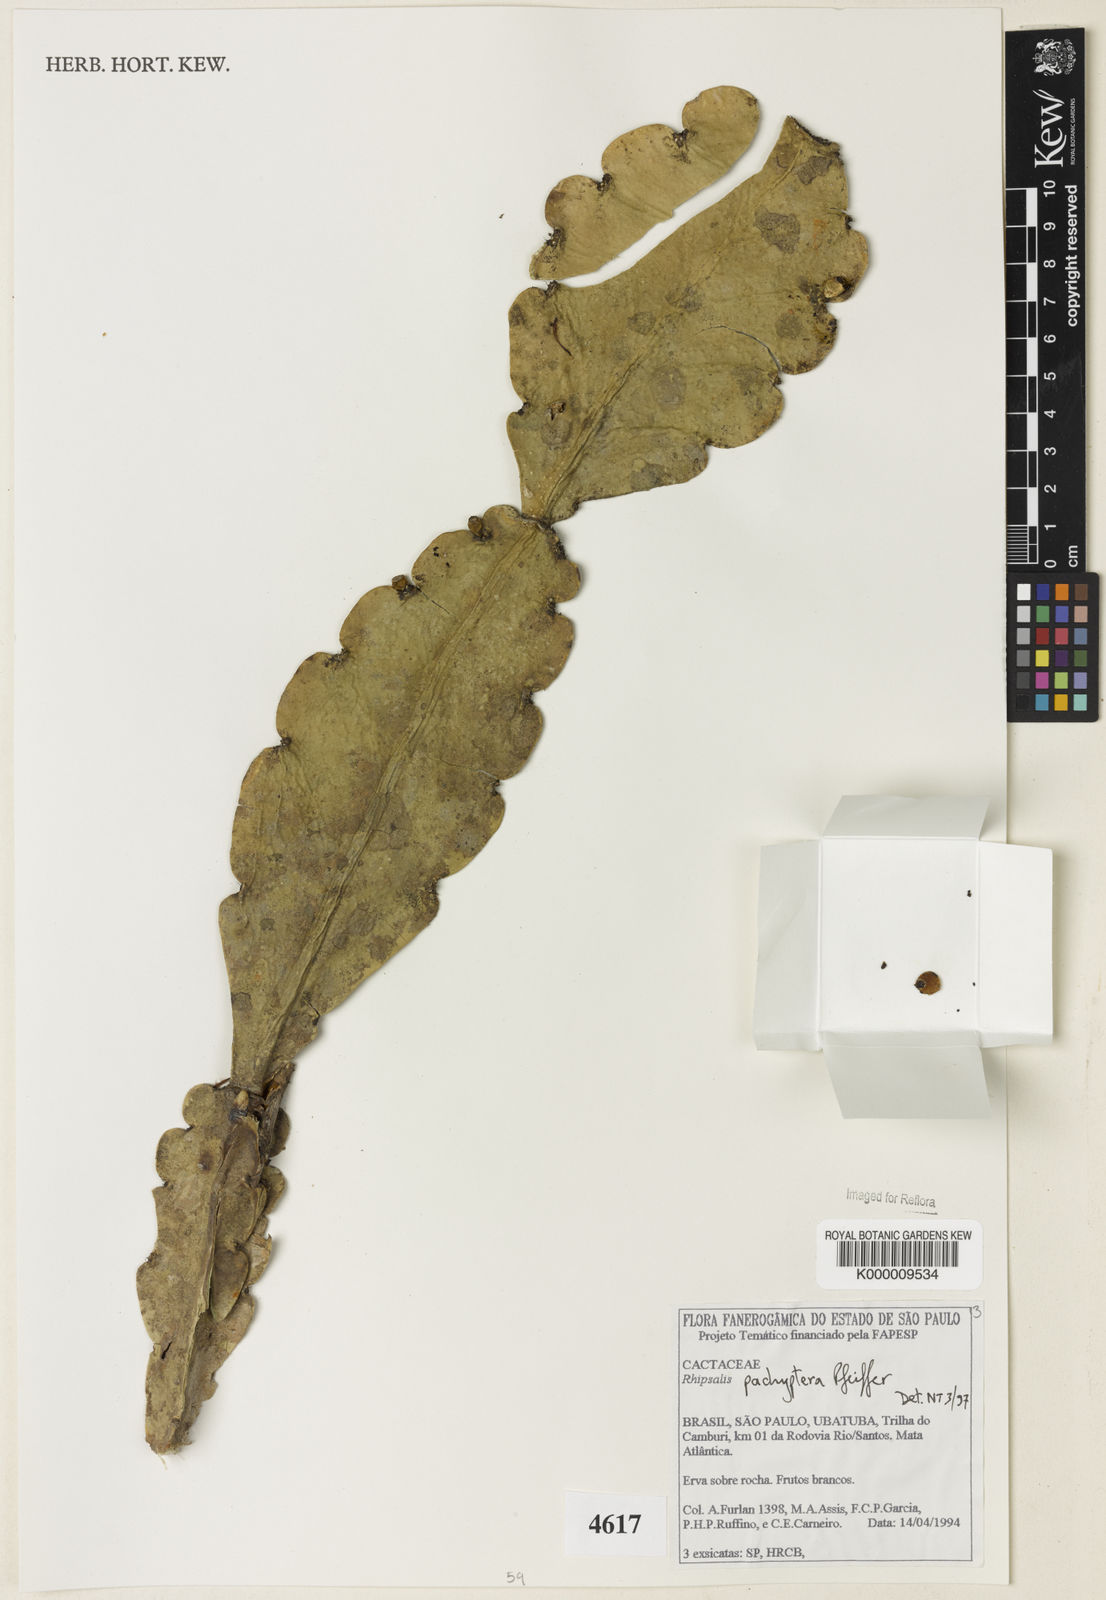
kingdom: Plantae
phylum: Tracheophyta
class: Magnoliopsida
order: Caryophyllales
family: Cactaceae
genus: Rhipsalis
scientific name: Rhipsalis pachyptera
